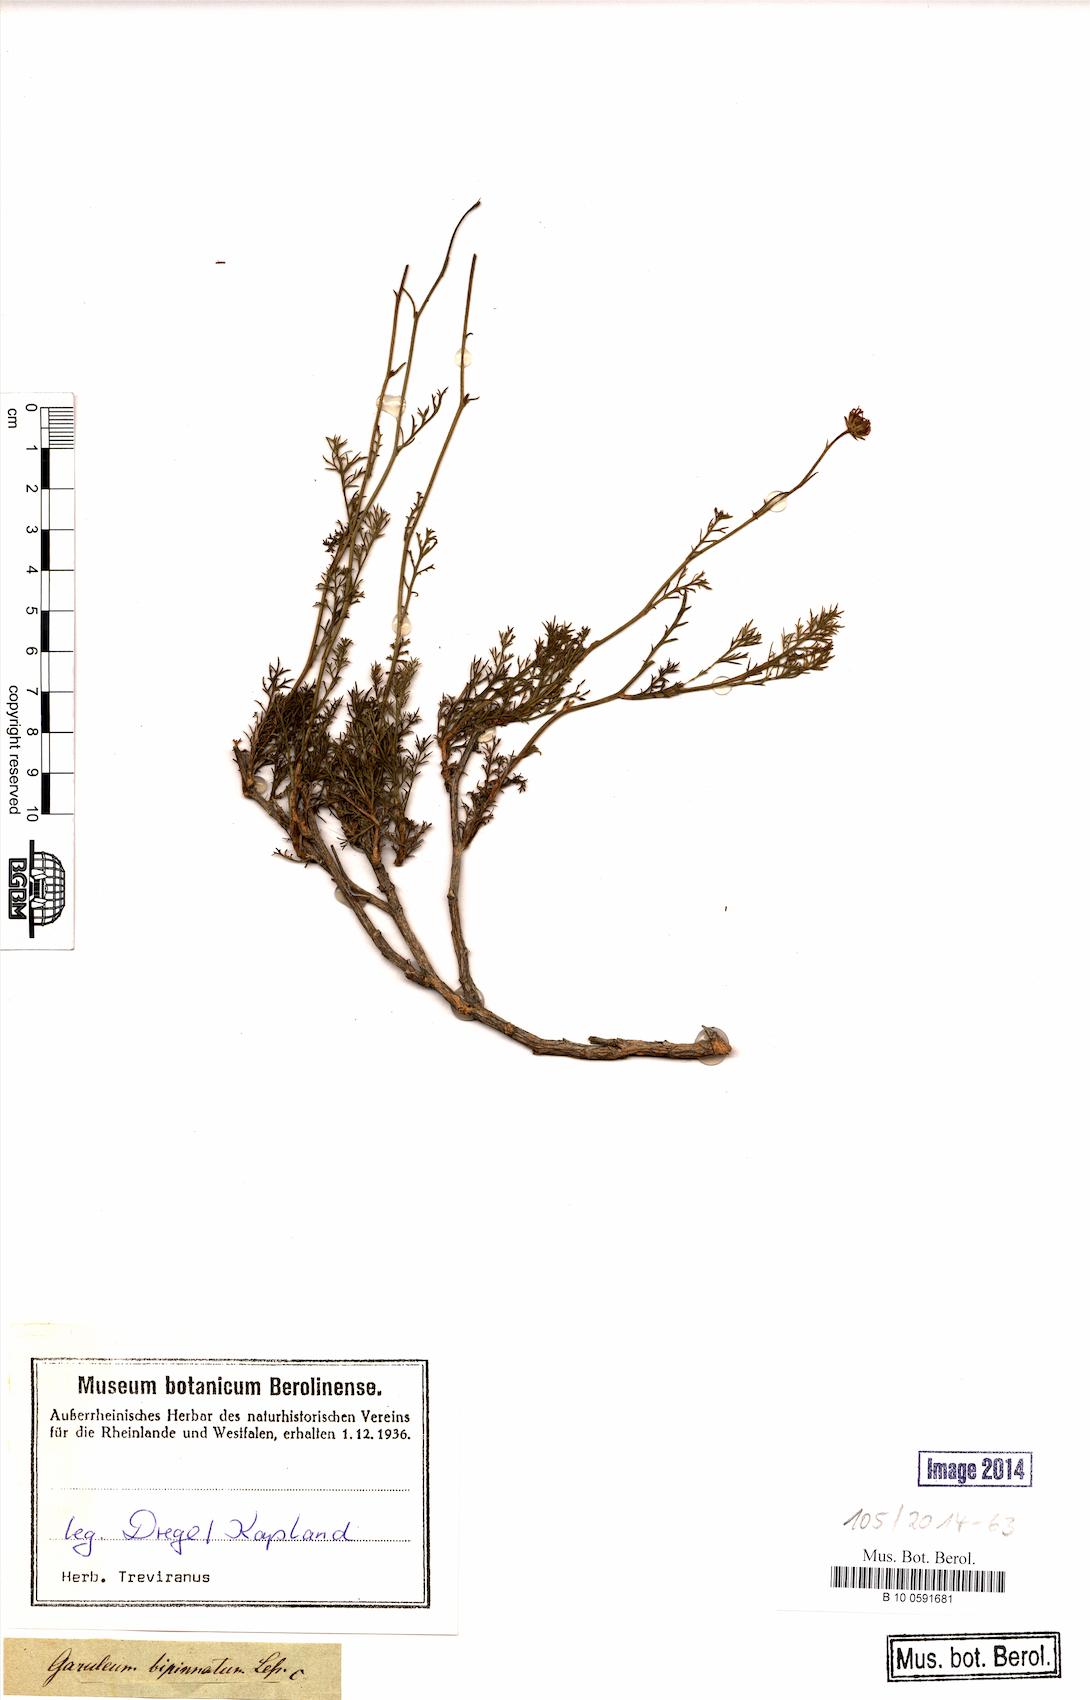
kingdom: Plantae
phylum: Tracheophyta
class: Magnoliopsida
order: Asterales
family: Asteraceae
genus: Garuleum
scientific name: Garuleum bipinnatum
